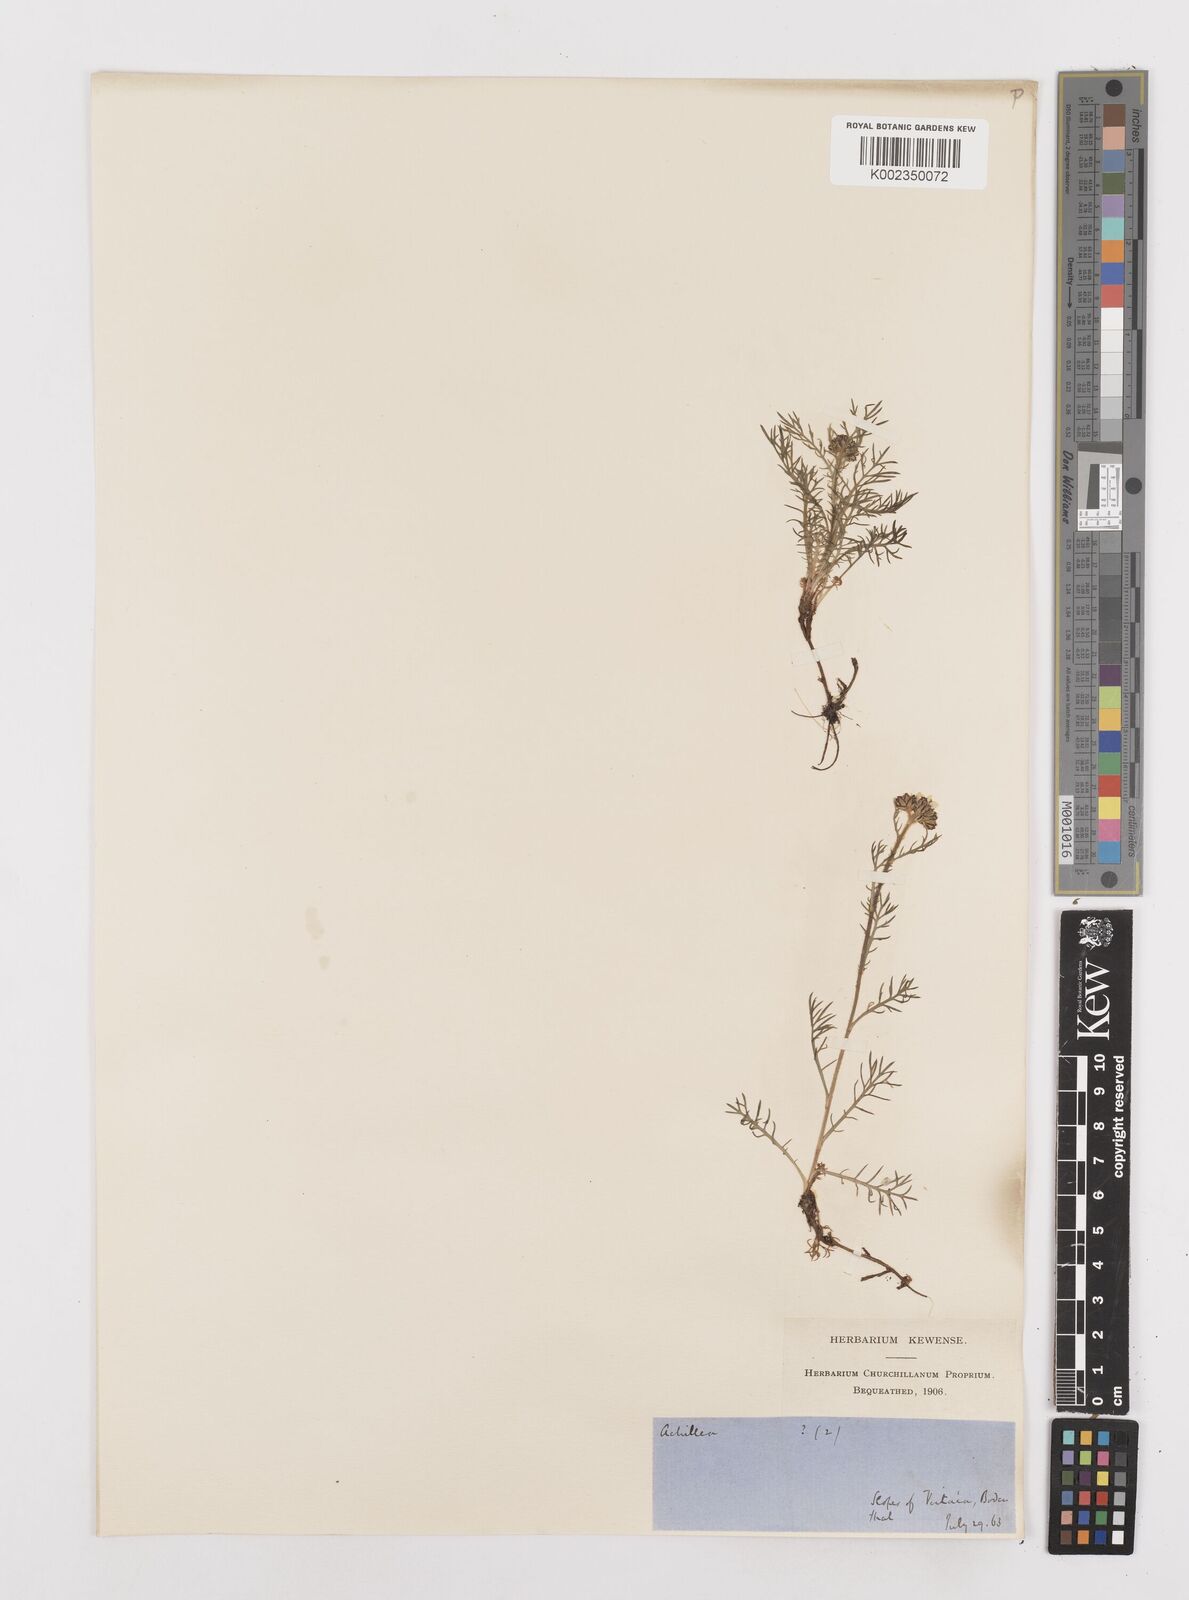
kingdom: Plantae
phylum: Tracheophyta
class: Magnoliopsida
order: Asterales
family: Asteraceae
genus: Achillea
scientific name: Achillea atrata
